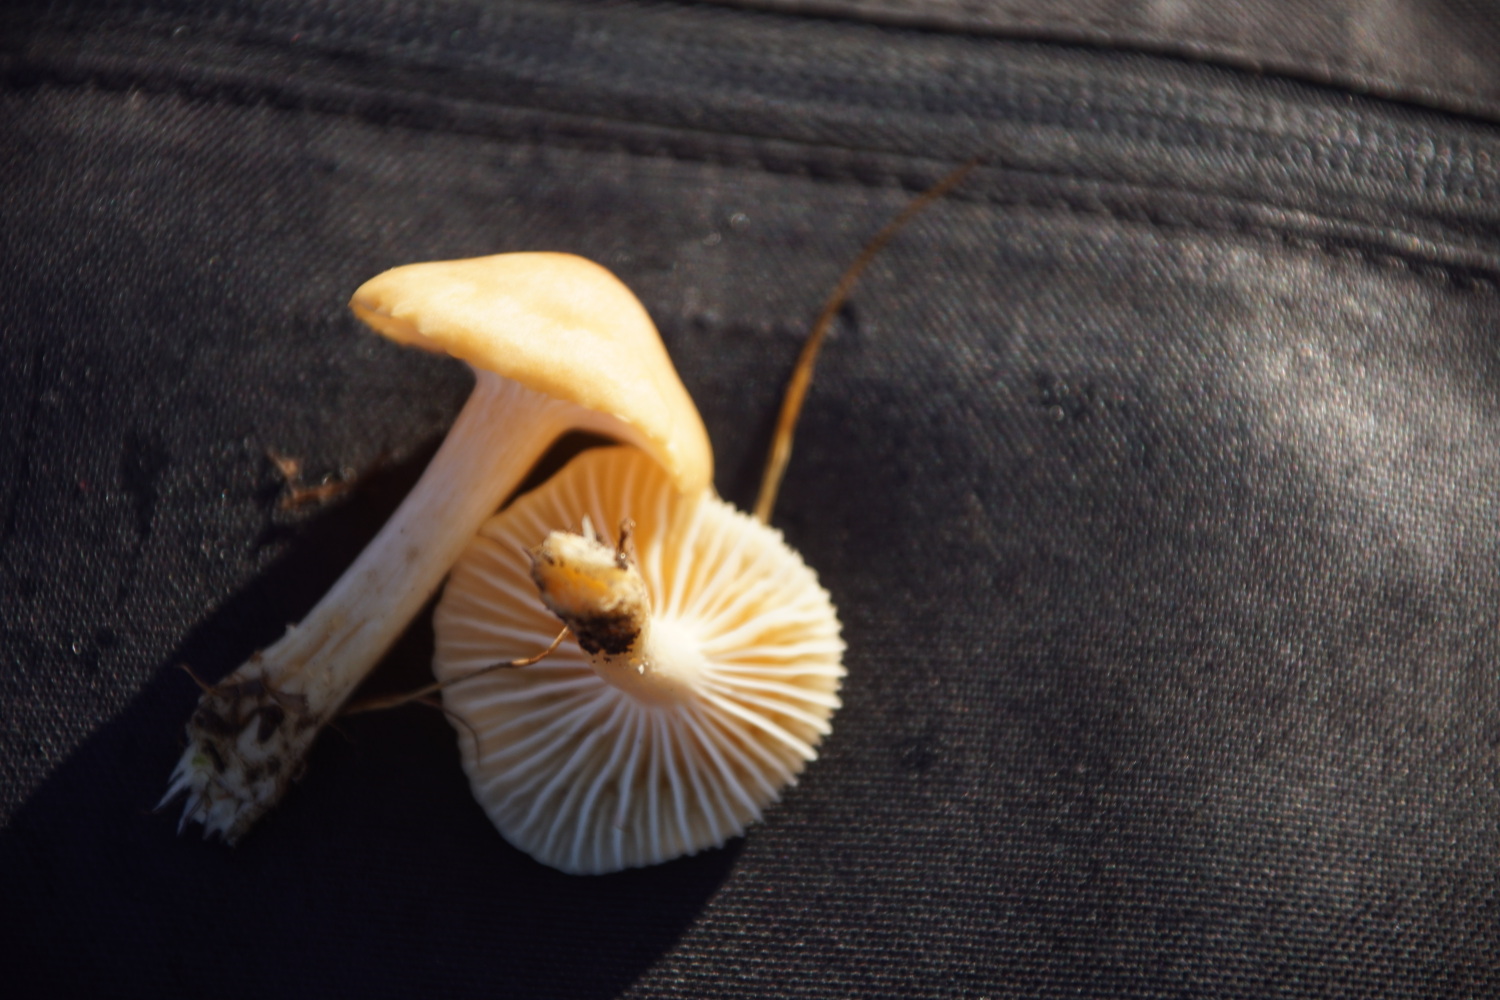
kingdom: Fungi
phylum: Basidiomycota
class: Agaricomycetes
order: Agaricales
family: Hygrophoraceae
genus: Cuphophyllus
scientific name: Cuphophyllus pratensis
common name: eng-vokshat
